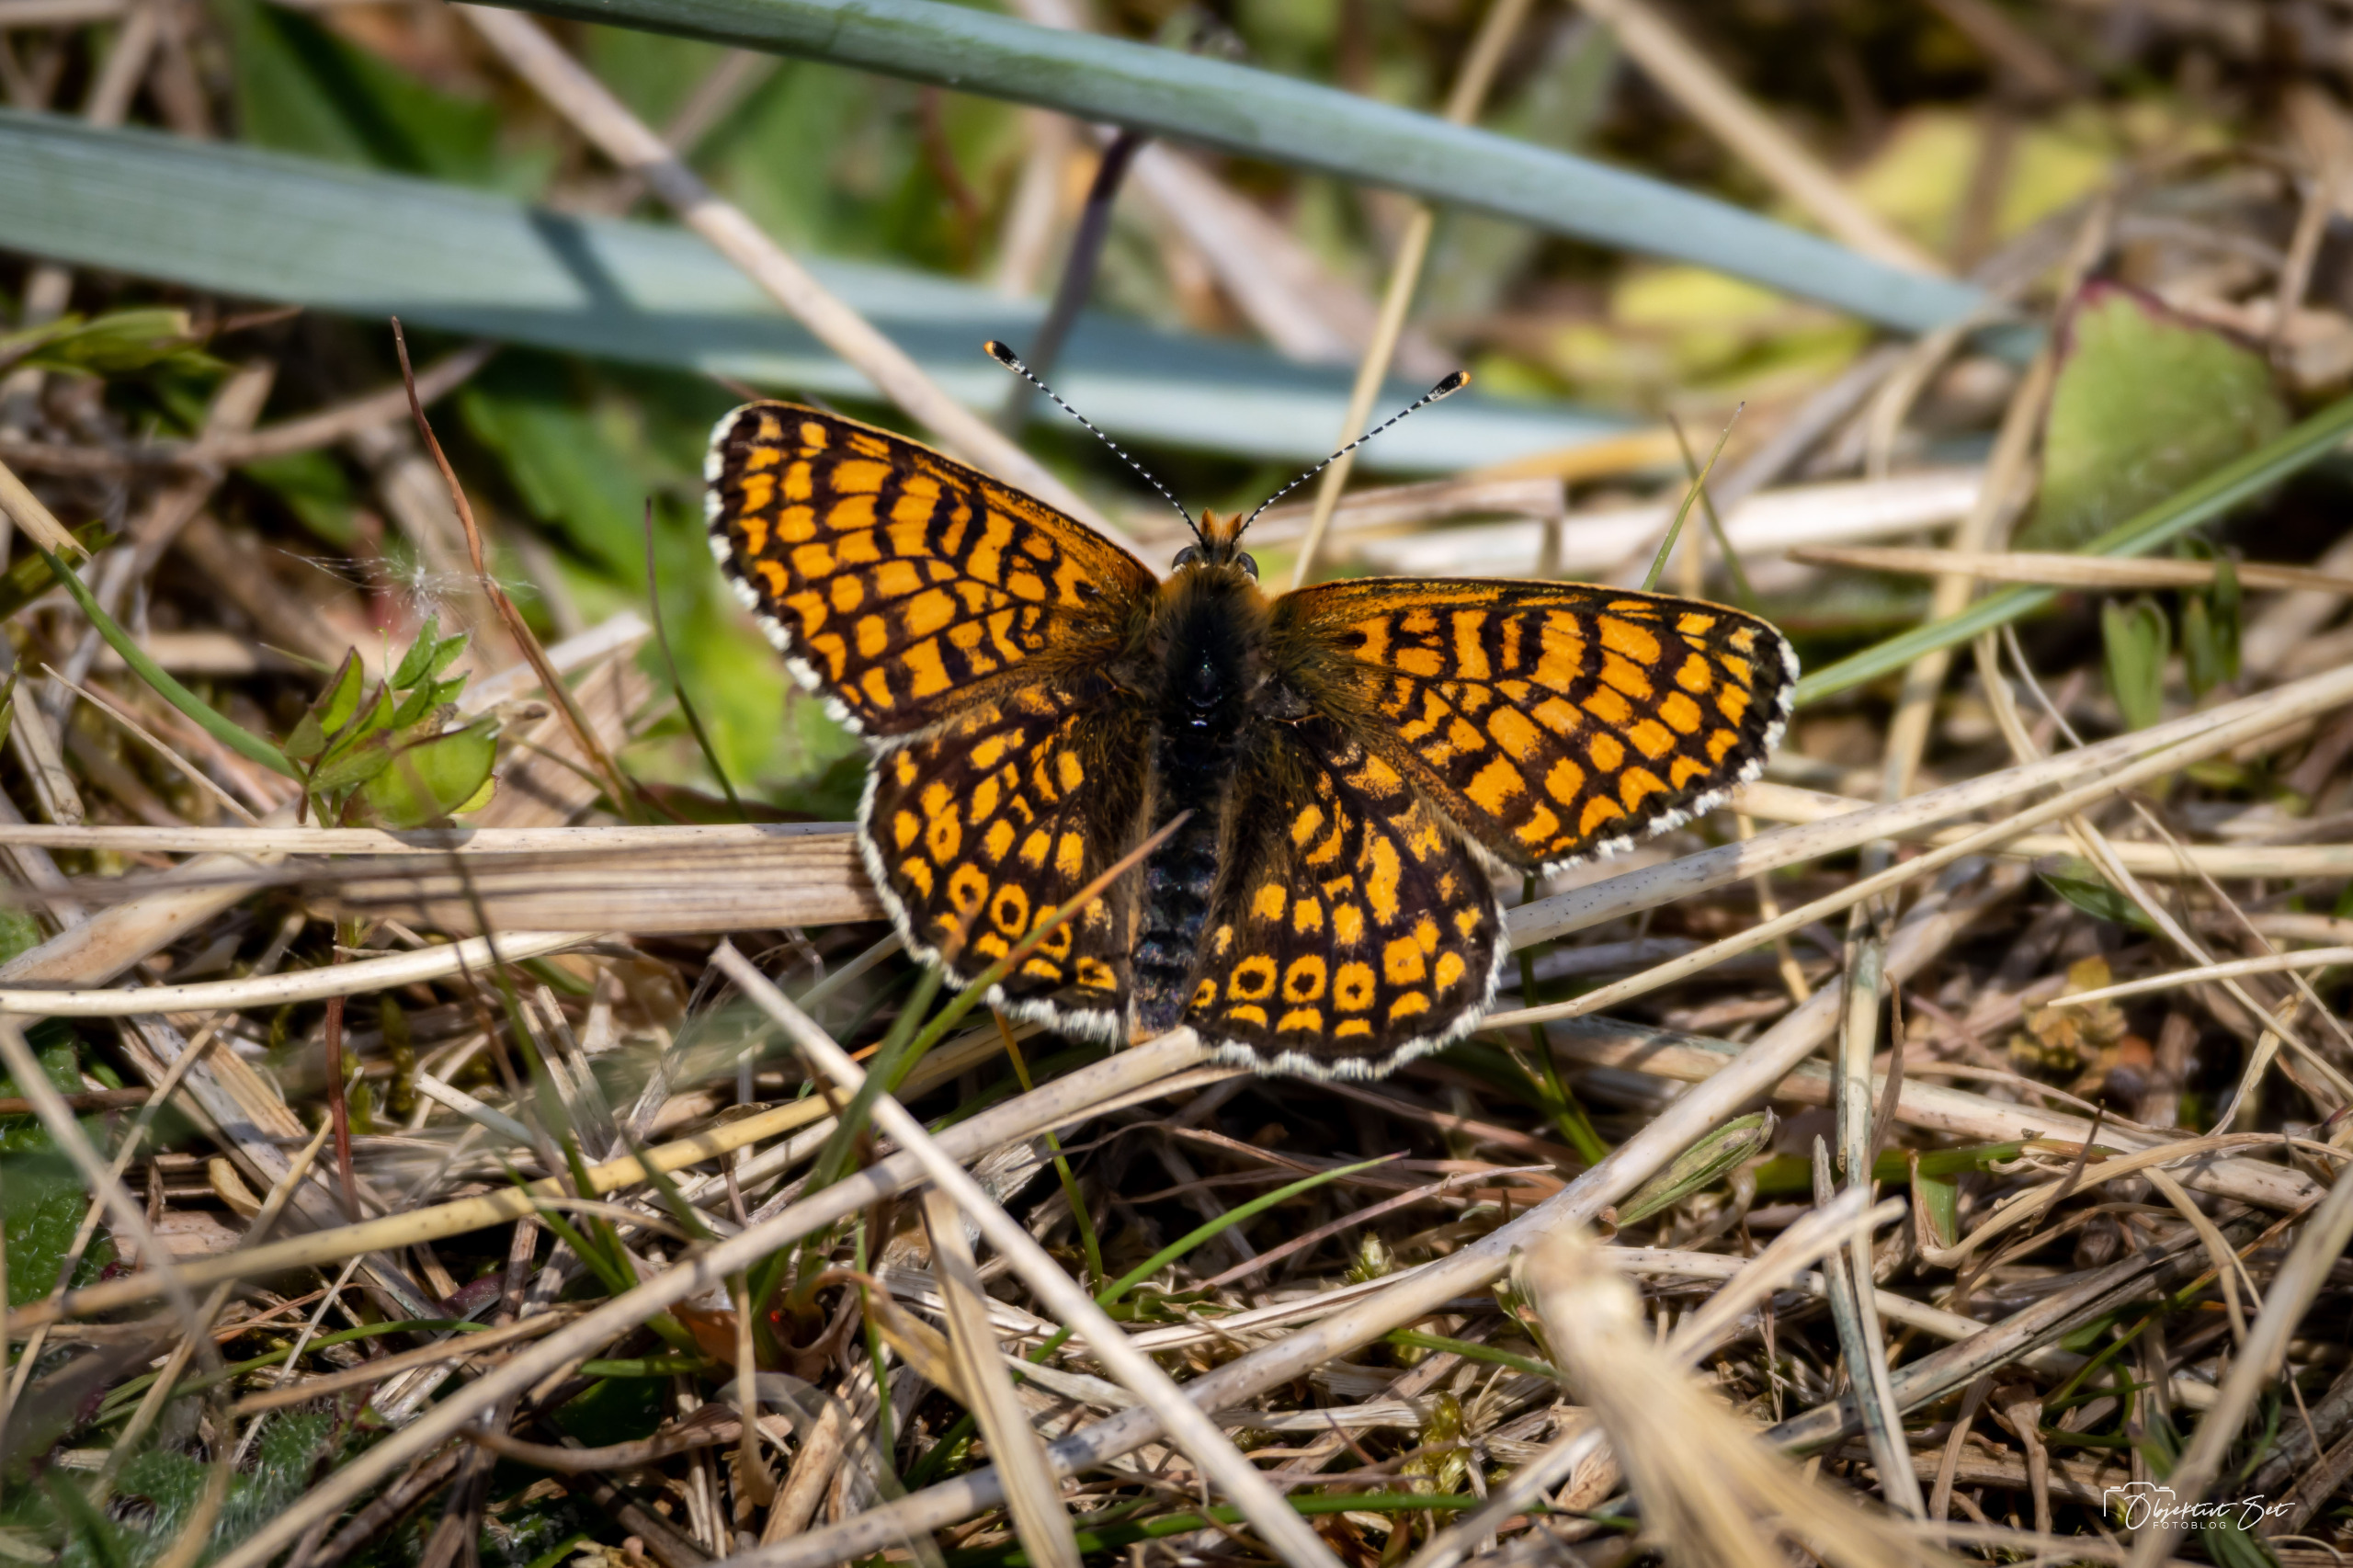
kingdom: Animalia
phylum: Arthropoda
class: Insecta
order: Lepidoptera
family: Nymphalidae
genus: Melitaea
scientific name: Melitaea cinxia
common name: Okkergul pletvinge
